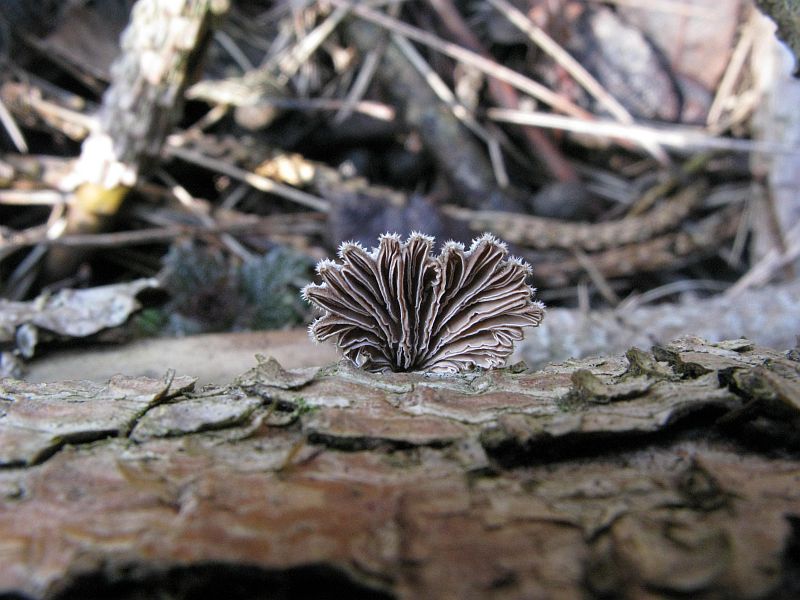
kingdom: Fungi
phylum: Basidiomycota
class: Agaricomycetes
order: Agaricales
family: Schizophyllaceae
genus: Schizophyllum
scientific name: Schizophyllum commune
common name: kløvblad
